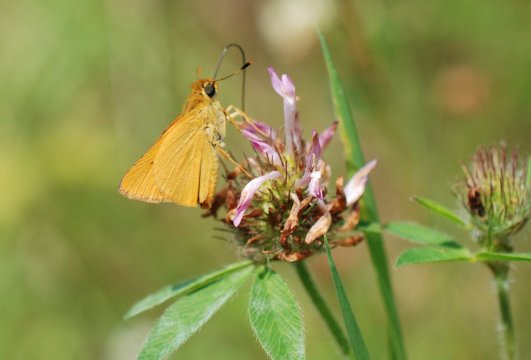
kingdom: Animalia
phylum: Arthropoda
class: Insecta
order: Lepidoptera
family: Hesperiidae
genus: Atrytone
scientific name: Atrytone delaware
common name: Delaware Skipper
